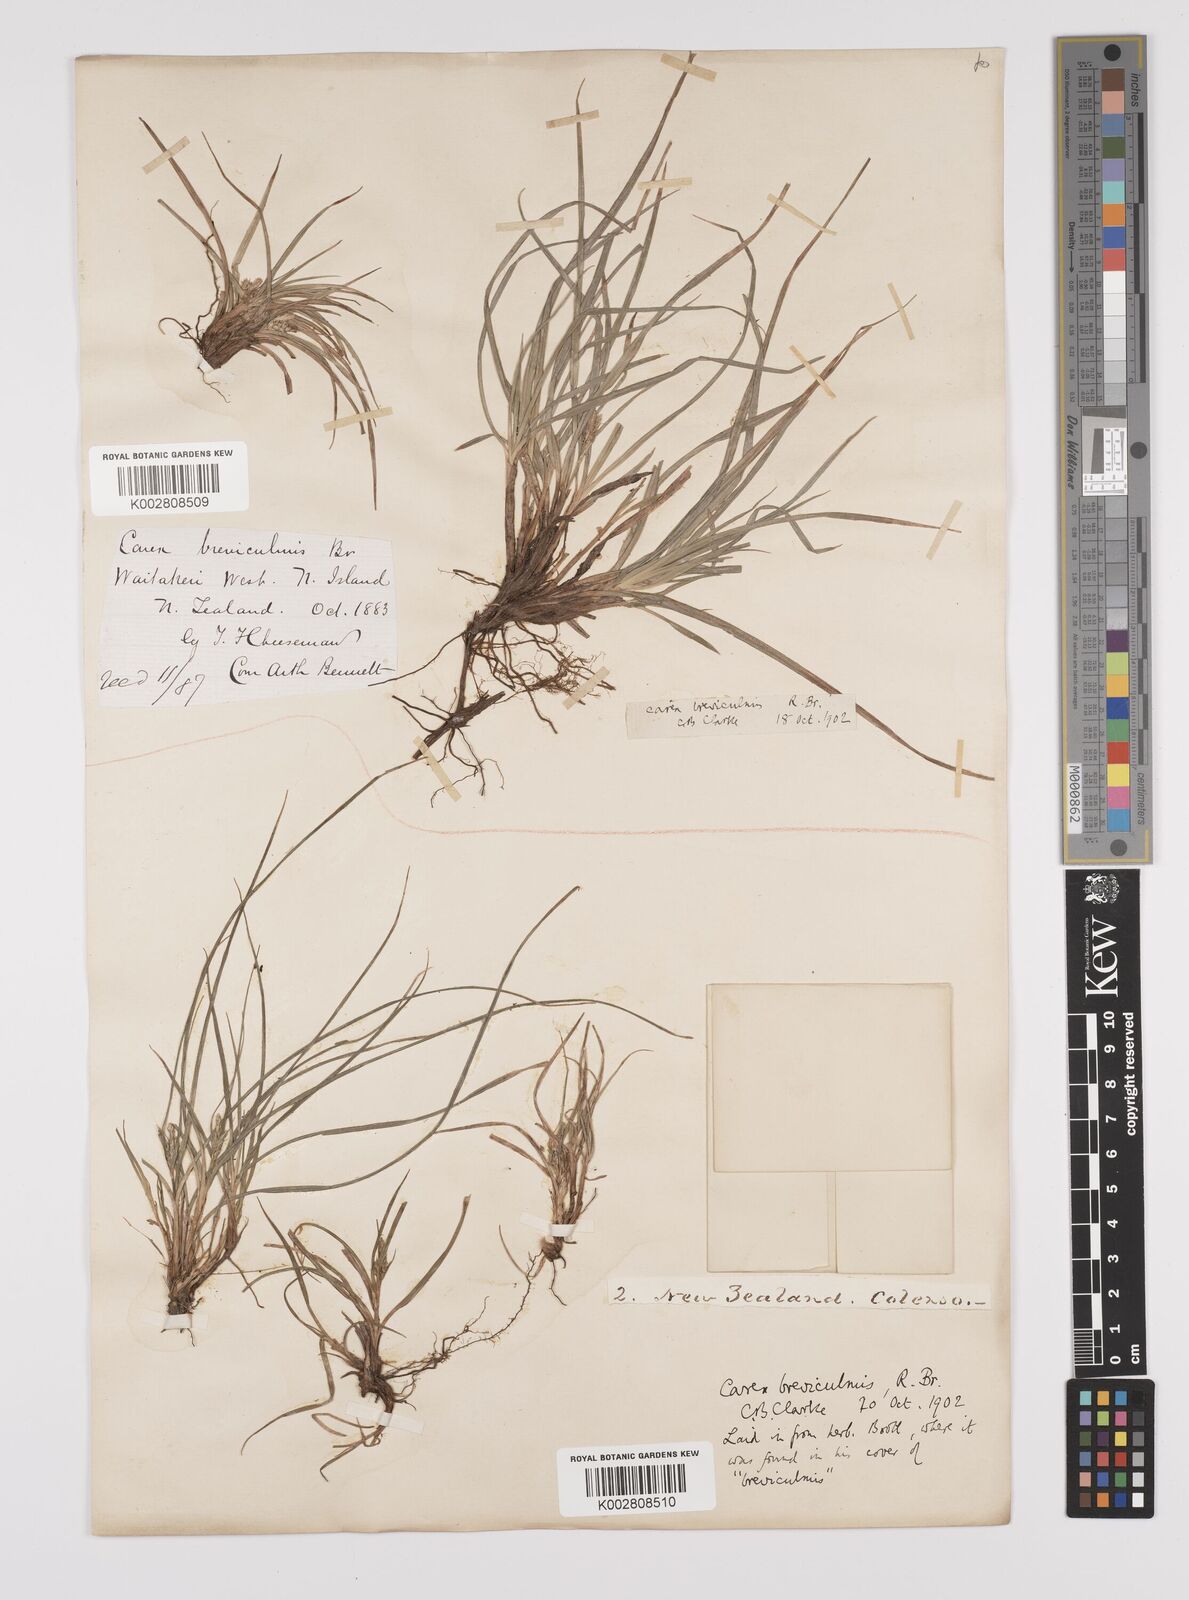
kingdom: Plantae
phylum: Tracheophyta
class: Liliopsida
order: Poales
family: Cyperaceae
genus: Carex
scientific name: Carex breviculmis
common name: Asian shortstem sedge
